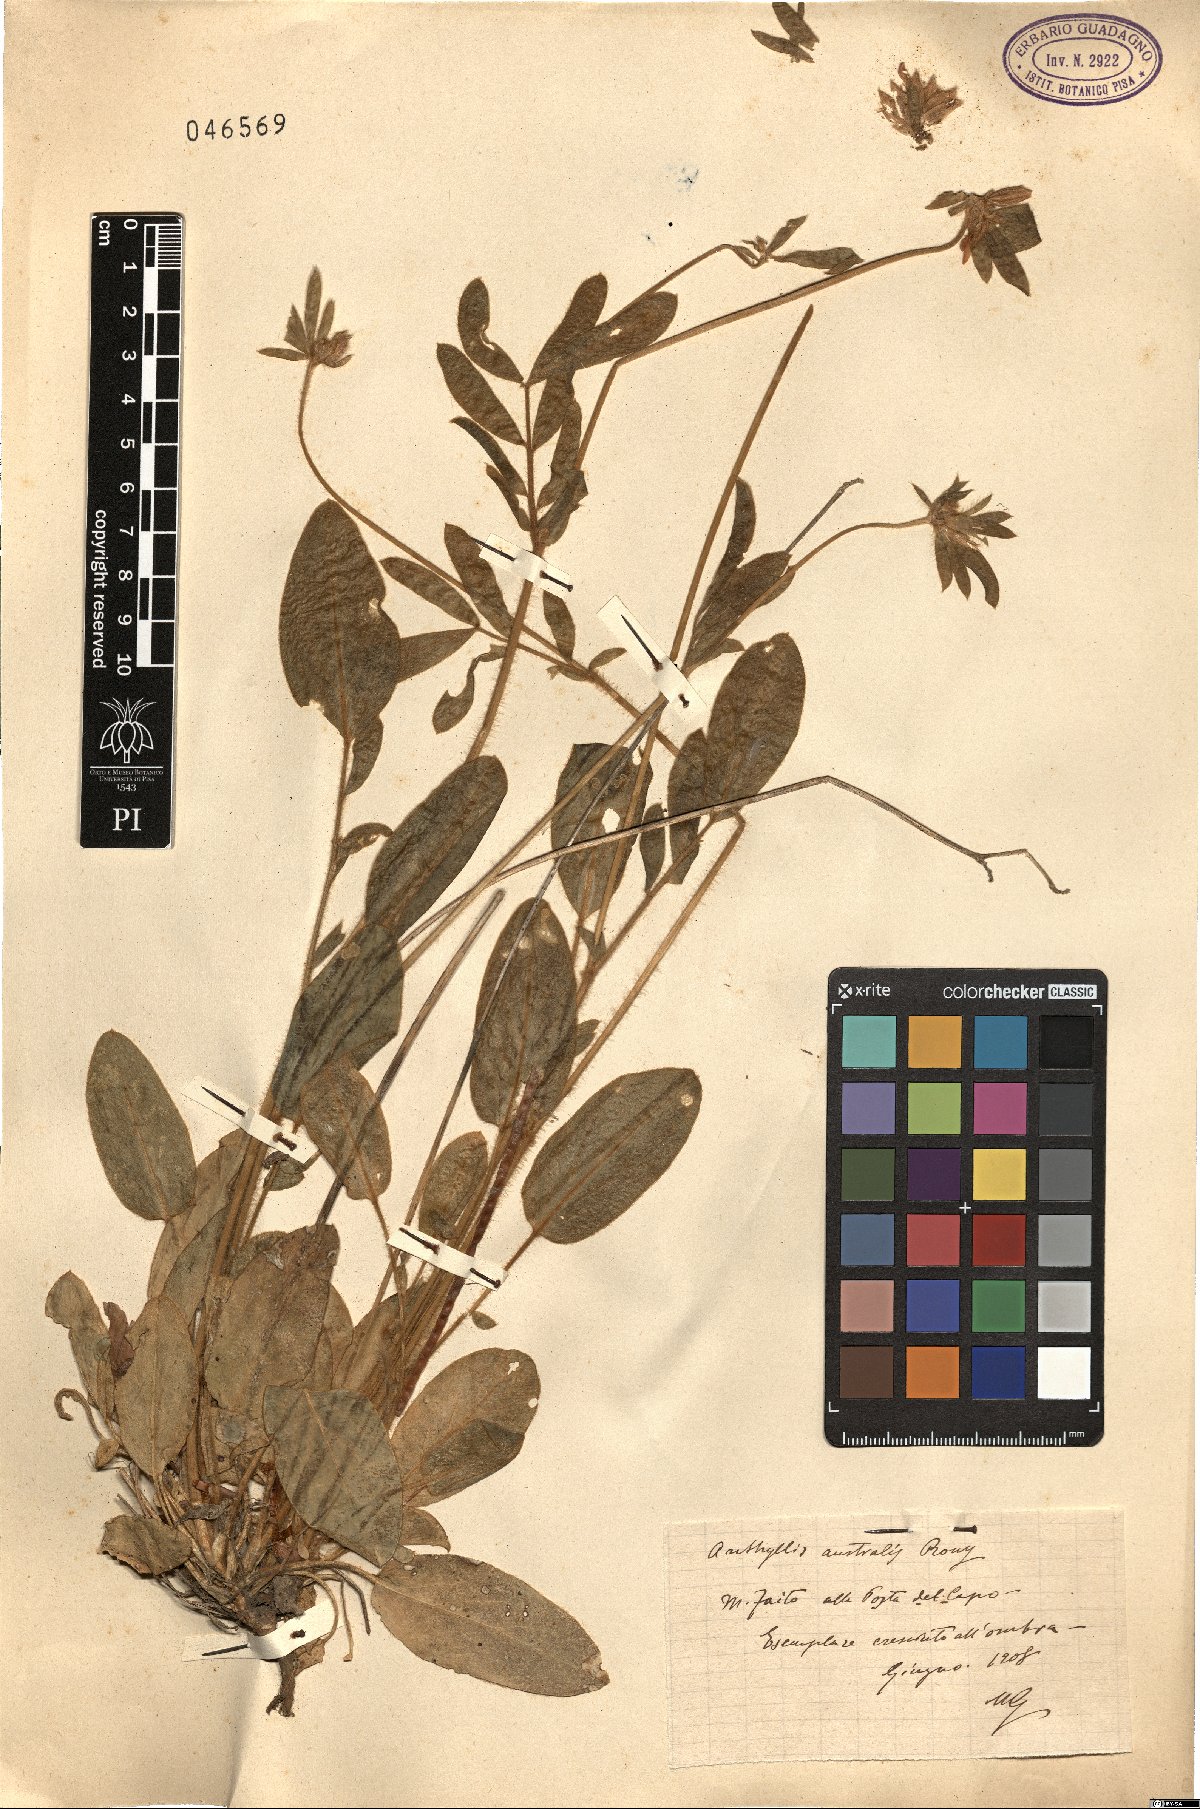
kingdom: Plantae
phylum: Tracheophyta
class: Magnoliopsida
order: Fabales
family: Fabaceae
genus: Anthyllis
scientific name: Anthyllis
